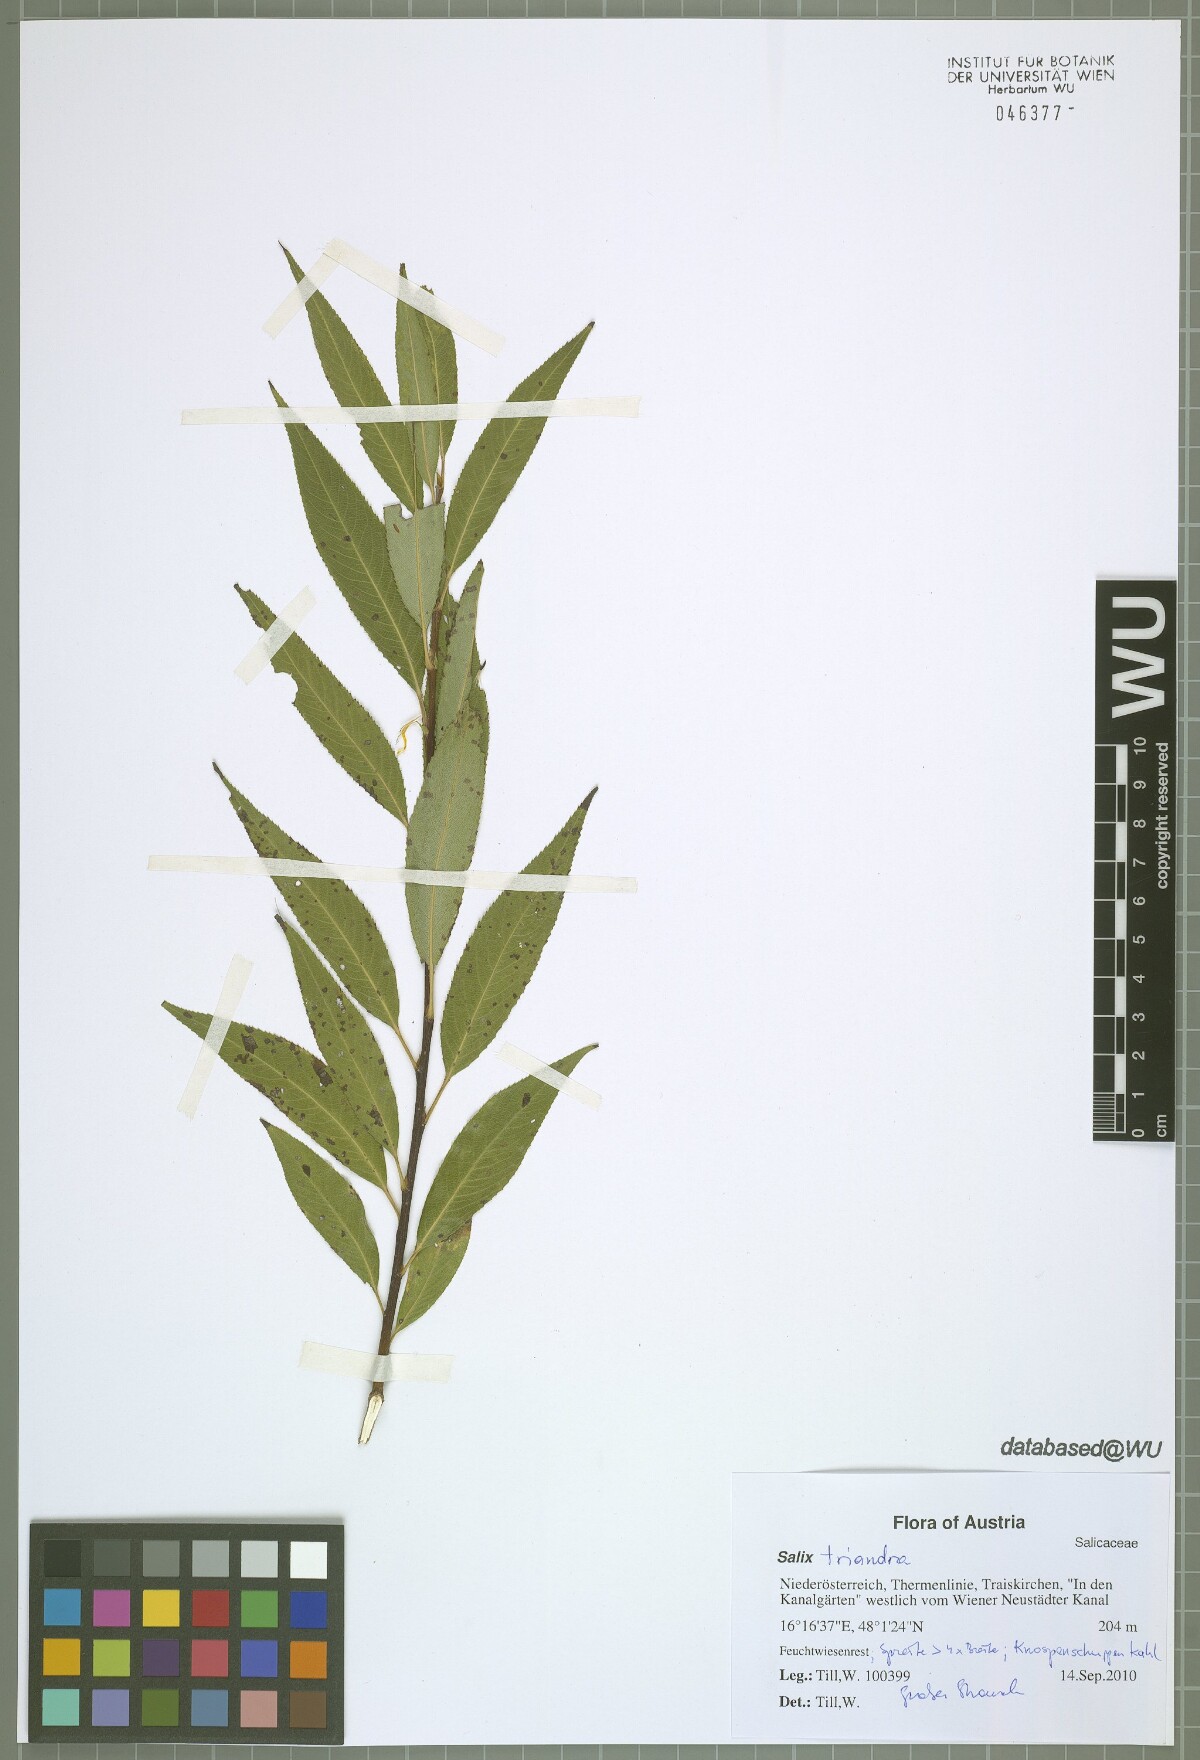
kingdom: Plantae
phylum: Tracheophyta
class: Magnoliopsida
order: Malpighiales
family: Salicaceae
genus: Salix
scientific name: Salix triandra
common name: Almond willow
